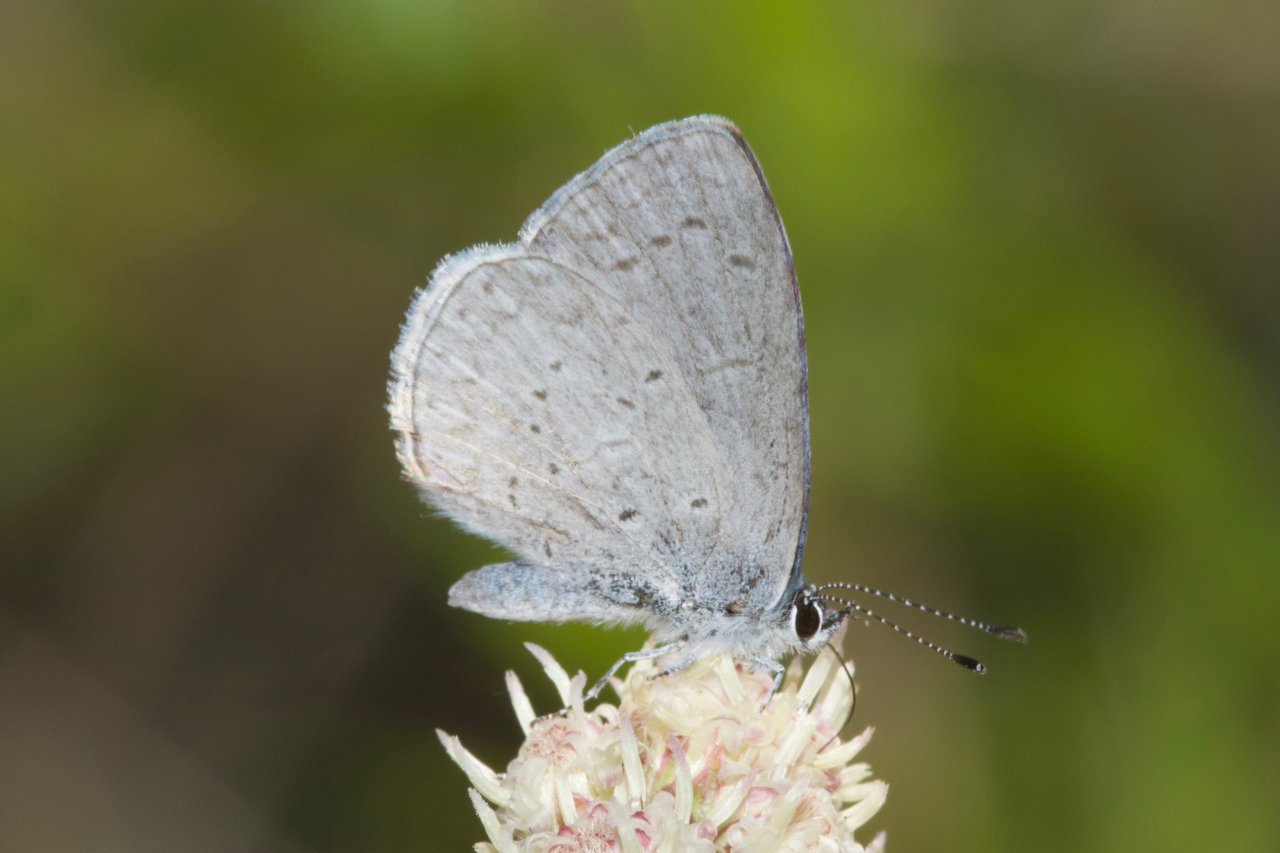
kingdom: Animalia
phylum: Arthropoda
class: Insecta
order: Lepidoptera
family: Lycaenidae
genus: Celastrina
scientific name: Celastrina ladon
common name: Echo Azure
